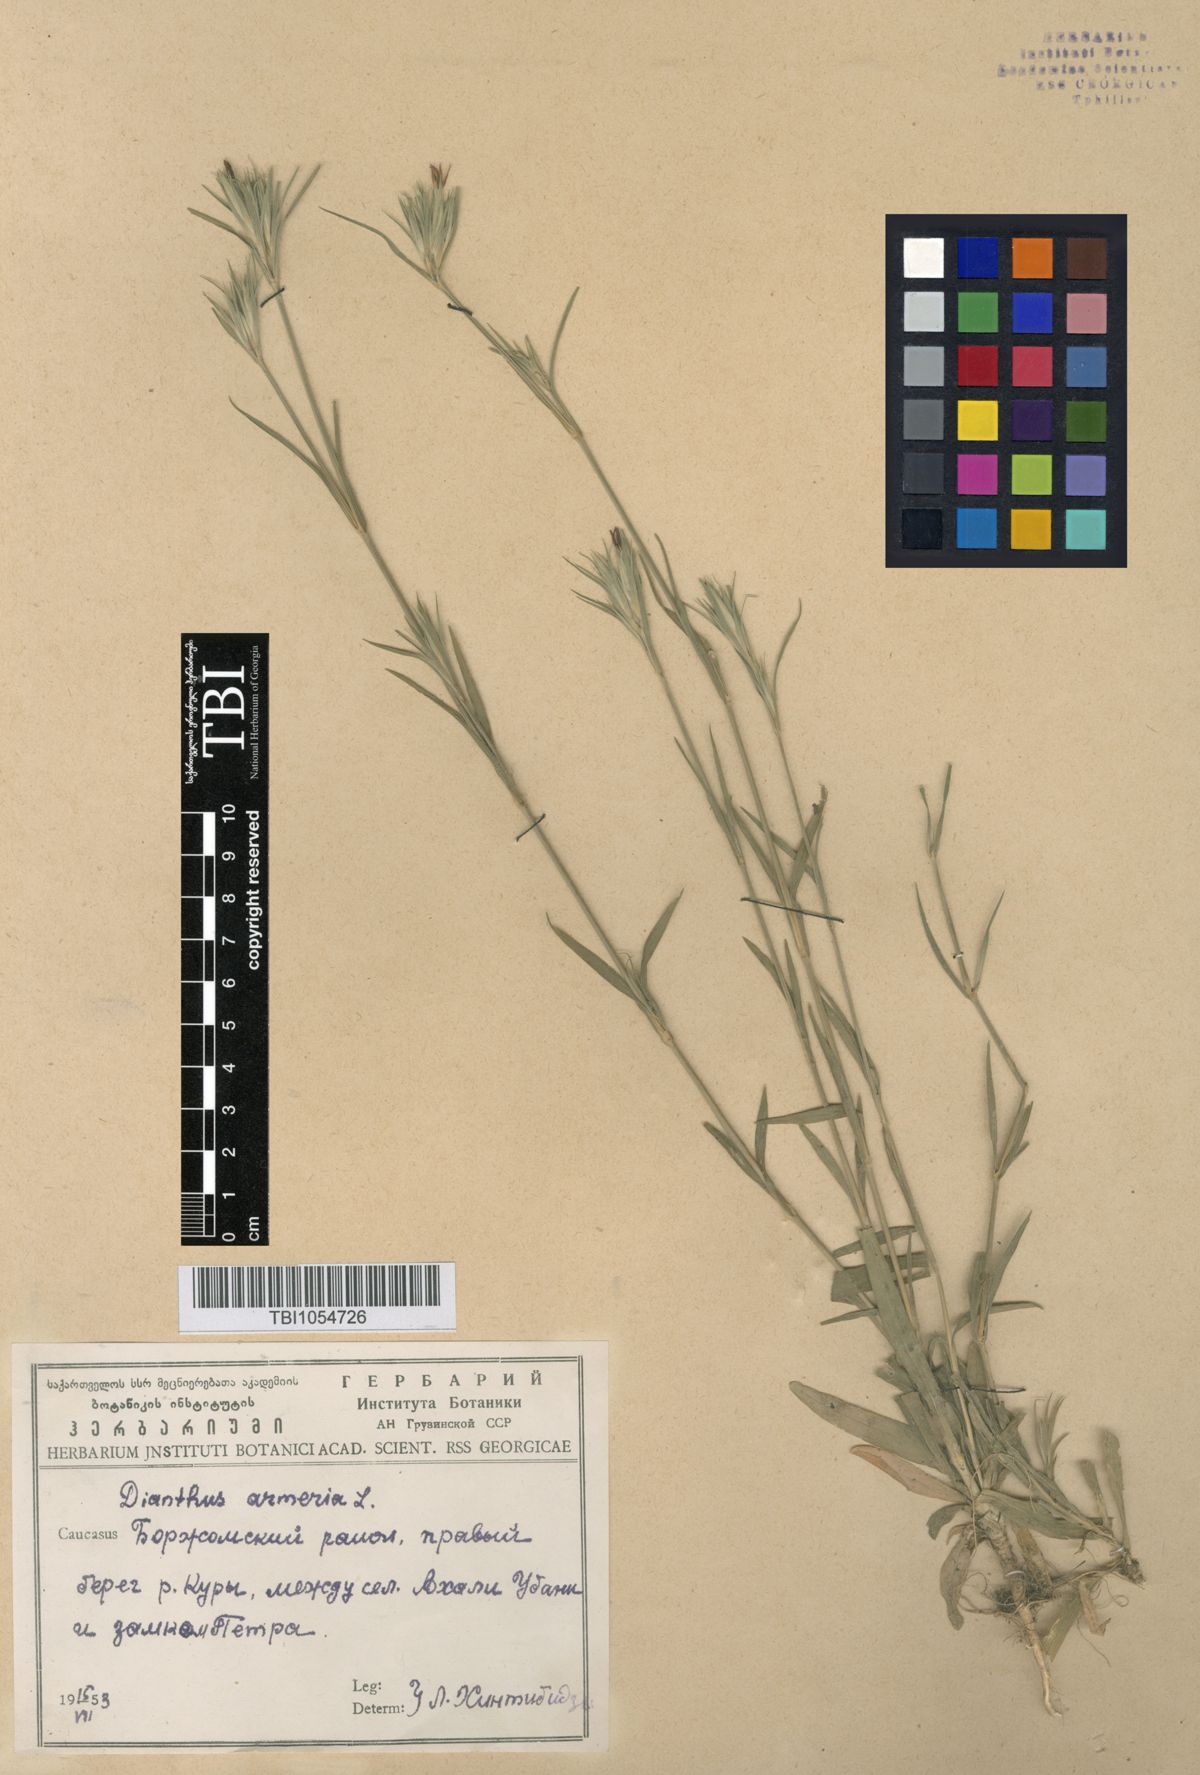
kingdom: Plantae
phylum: Tracheophyta
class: Magnoliopsida
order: Caryophyllales
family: Caryophyllaceae
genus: Dianthus
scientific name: Dianthus armeria
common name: Deptford pink
